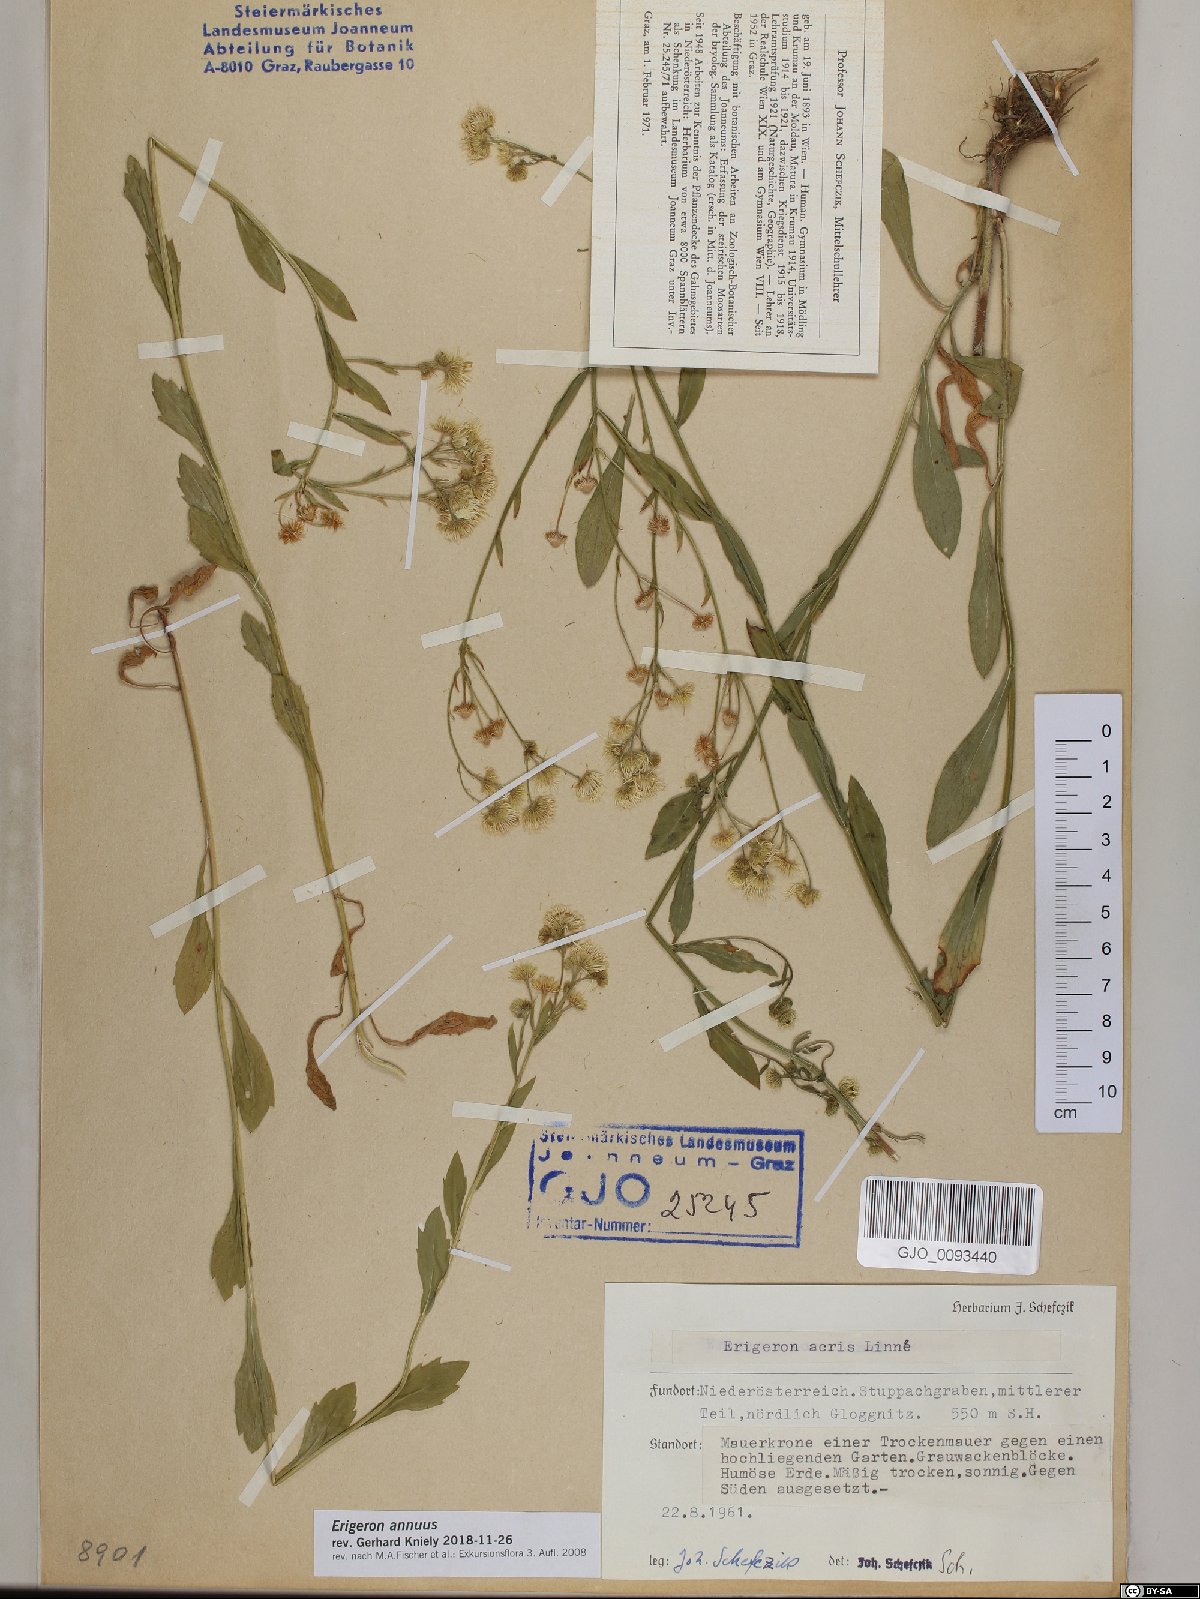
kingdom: Plantae
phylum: Tracheophyta
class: Magnoliopsida
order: Asterales
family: Asteraceae
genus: Erigeron
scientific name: Erigeron annuus
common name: Tall fleabane
